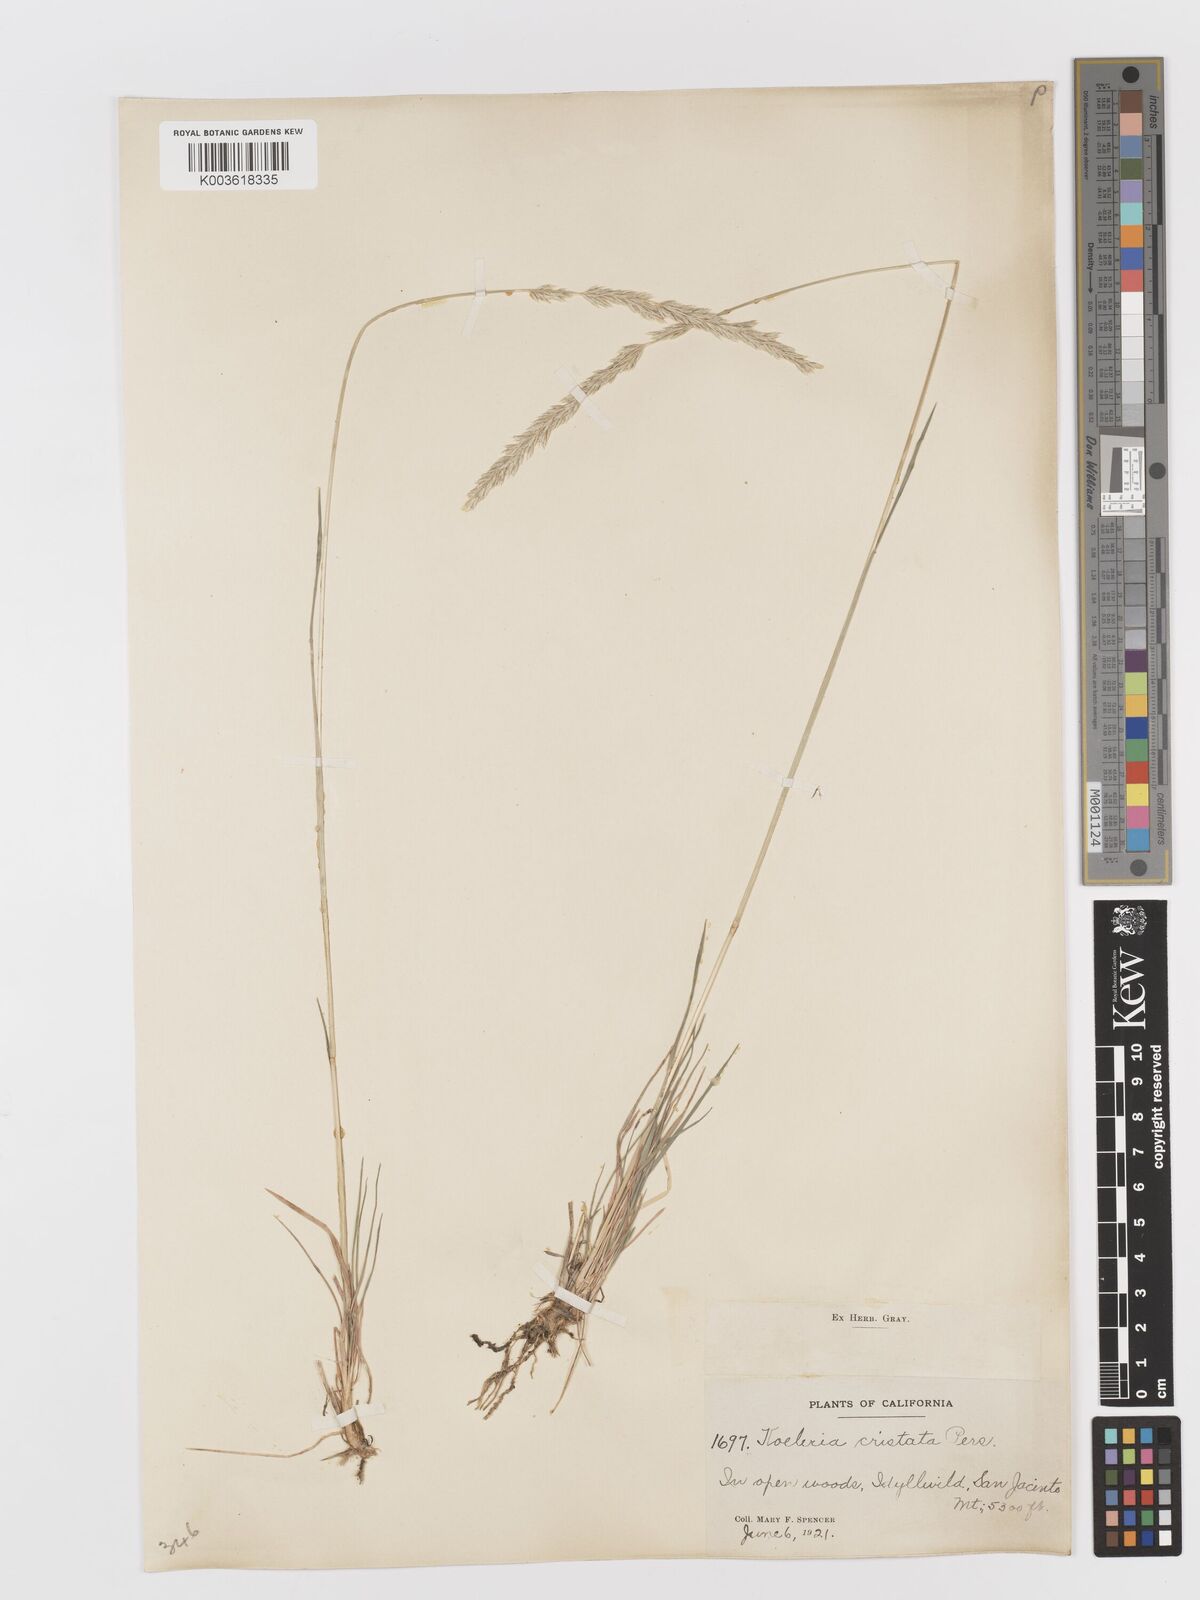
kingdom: Plantae
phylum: Tracheophyta
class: Liliopsida
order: Poales
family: Poaceae
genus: Koeleria
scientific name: Koeleria
